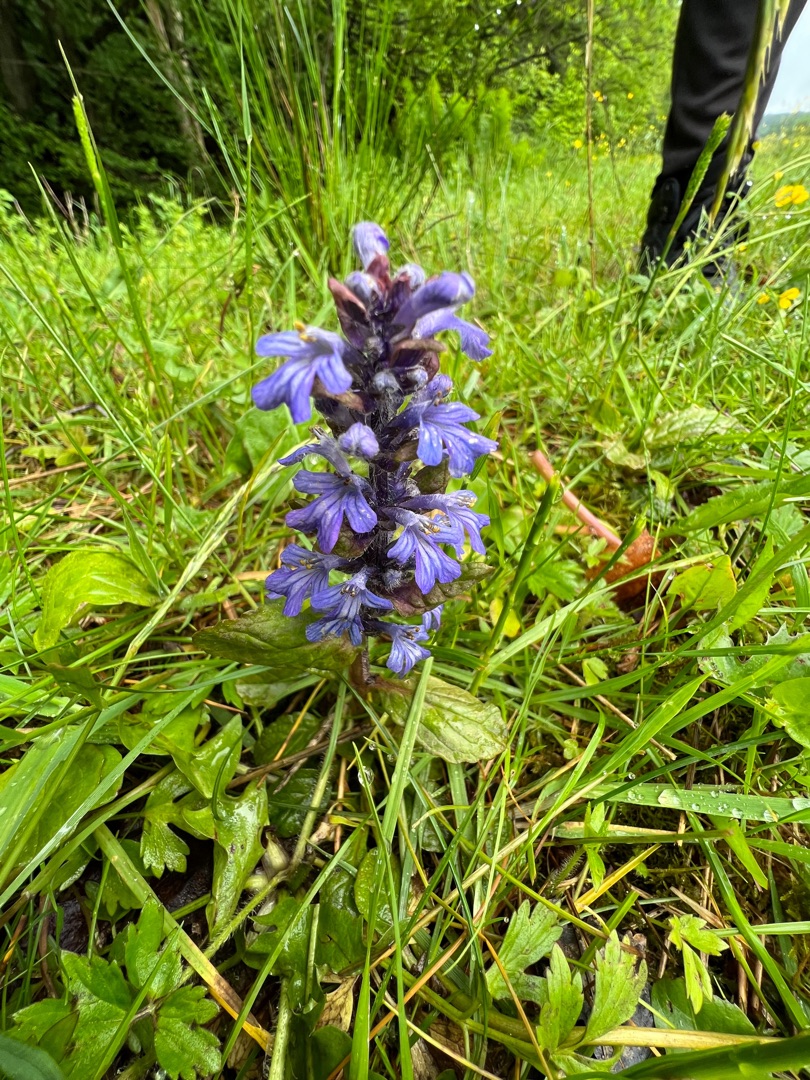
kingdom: Plantae
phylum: Tracheophyta
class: Magnoliopsida
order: Lamiales
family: Lamiaceae
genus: Ajuga
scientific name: Ajuga reptans
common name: Krybende læbeløs
